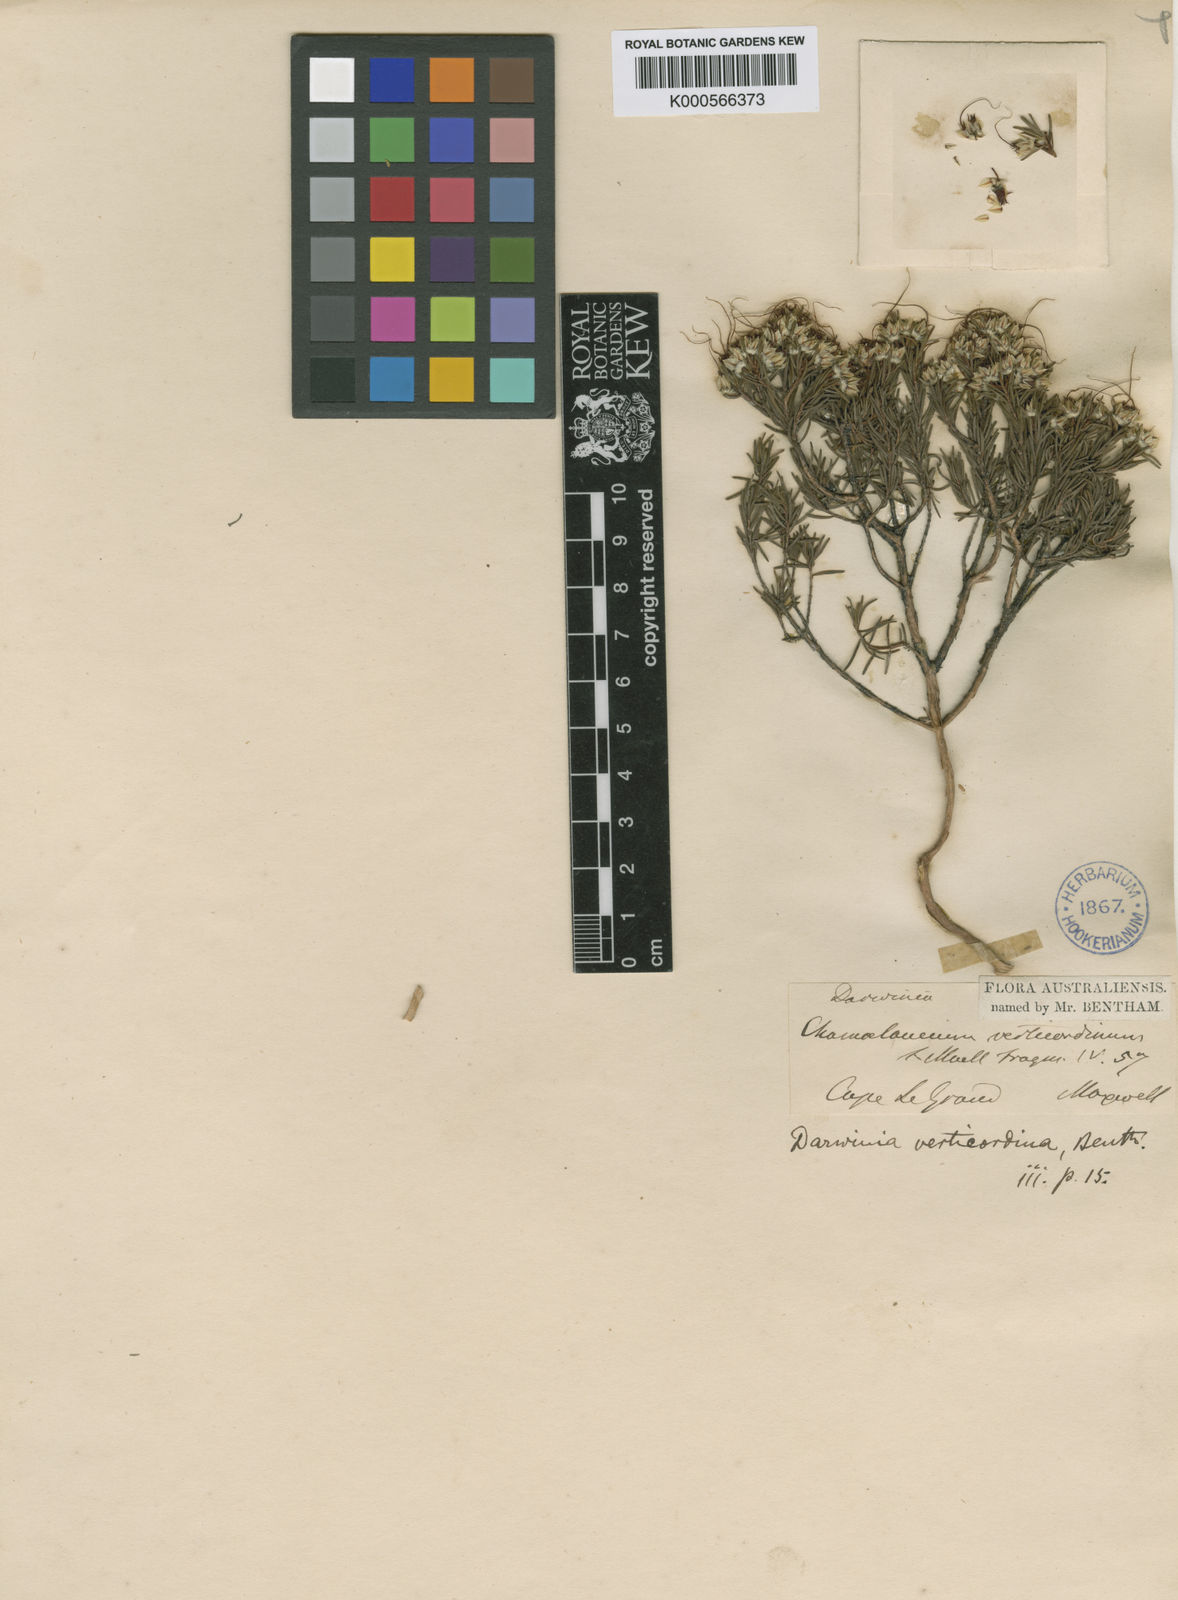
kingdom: Plantae
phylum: Tracheophyta
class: Magnoliopsida
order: Myrtales
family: Myrtaceae
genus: Verticordia
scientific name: Verticordia verticordina
